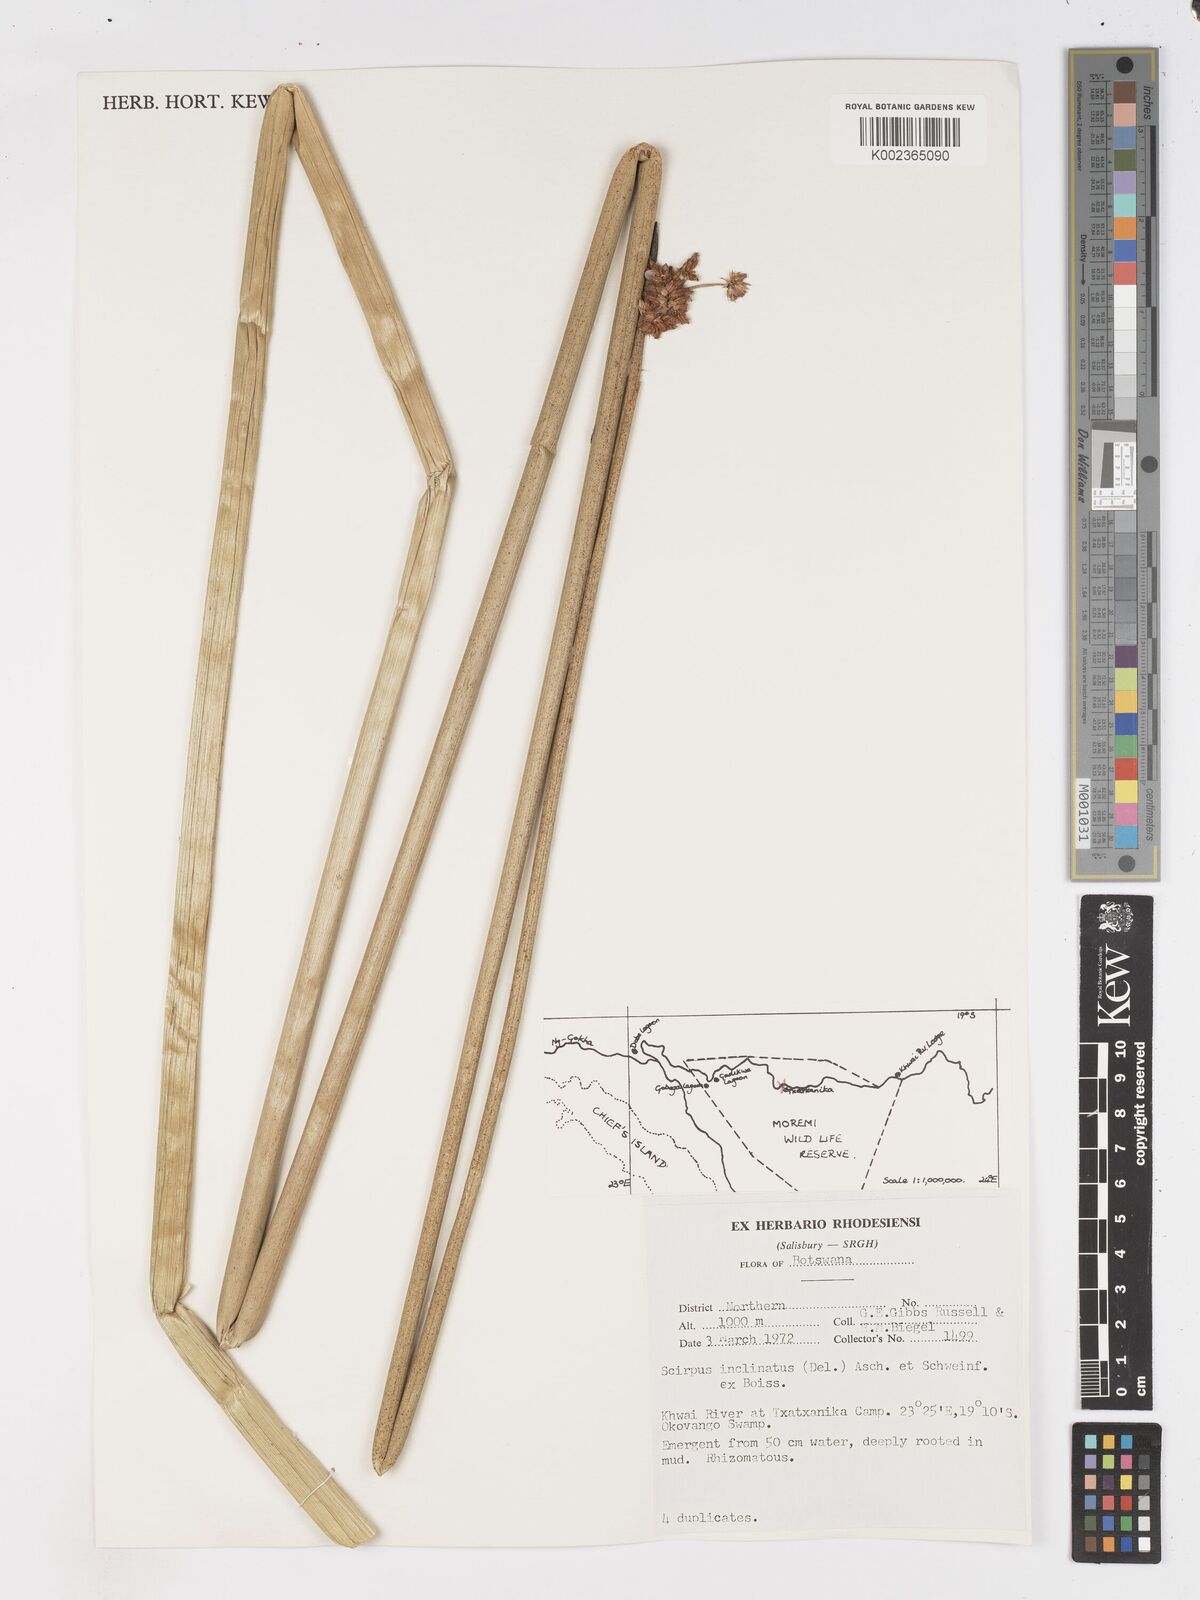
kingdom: Plantae
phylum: Tracheophyta
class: Liliopsida
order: Poales
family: Cyperaceae
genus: Schoenoplectiella
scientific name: Schoenoplectiella brachyceras
